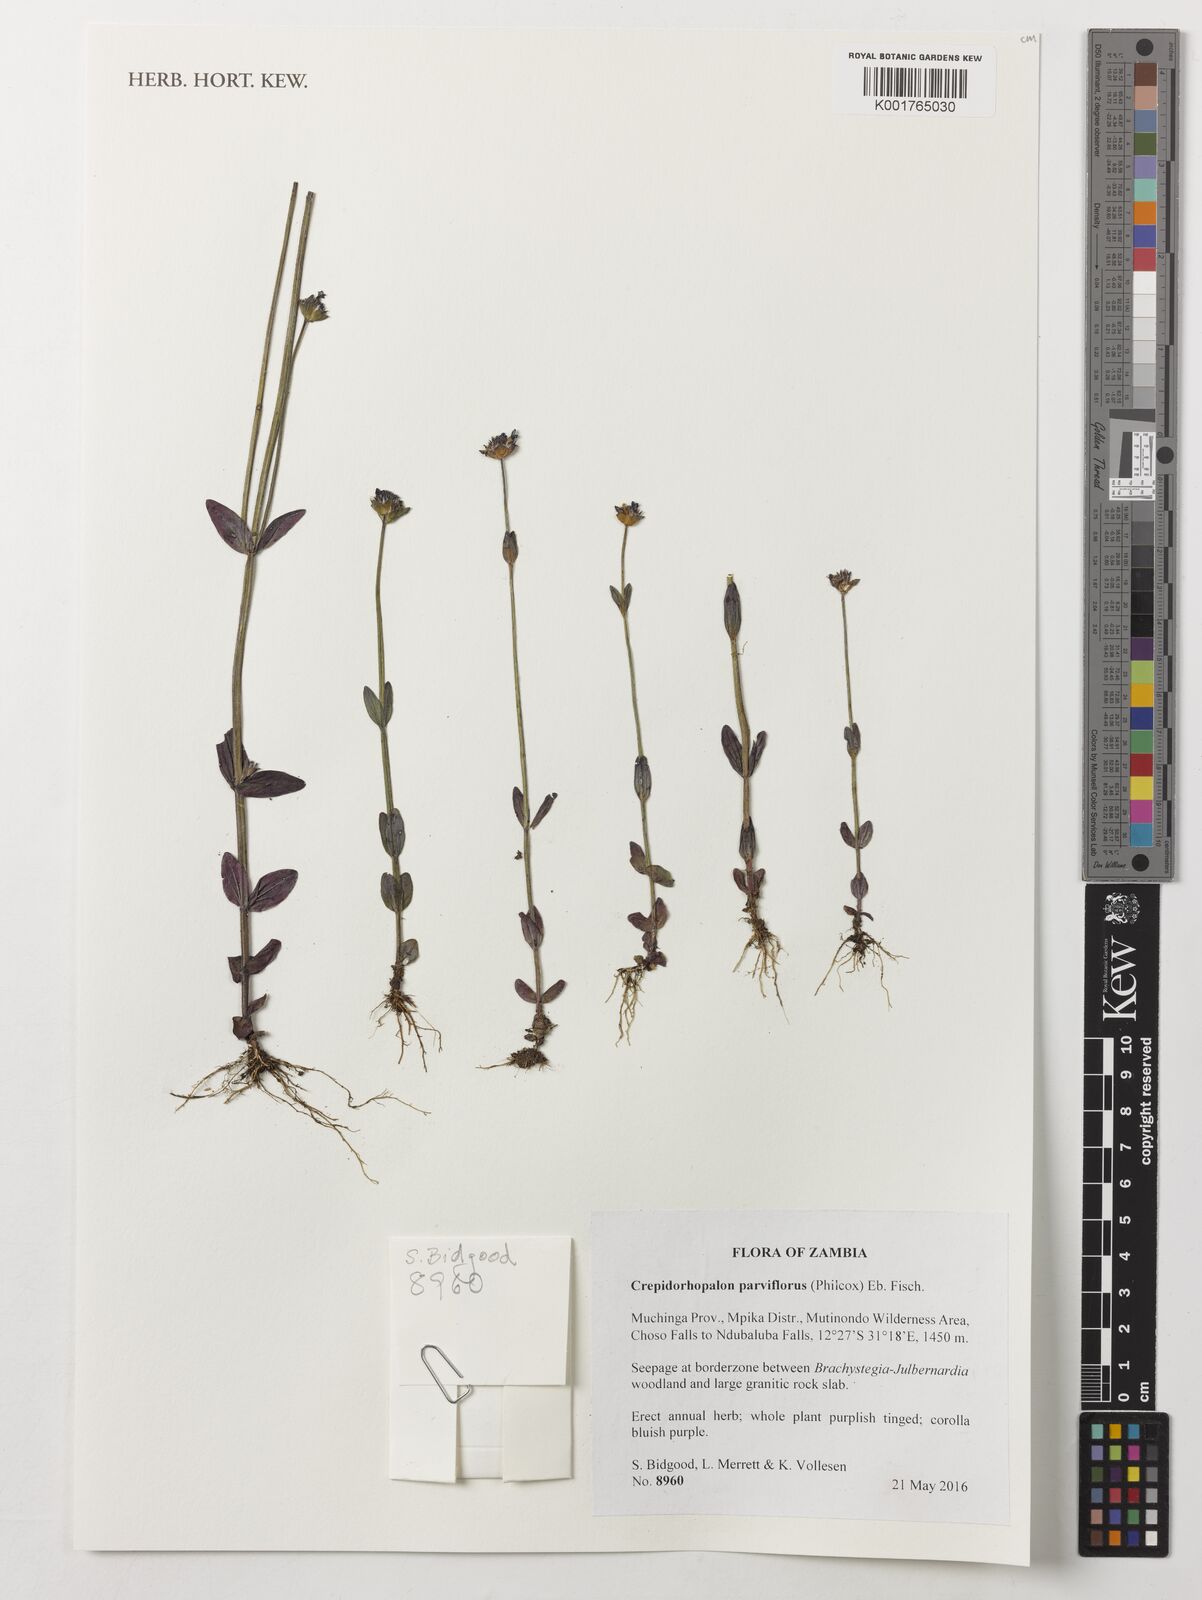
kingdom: Plantae
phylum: Tracheophyta
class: Magnoliopsida
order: Lamiales
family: Linderniaceae
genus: Crepidorhopalon
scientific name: Crepidorhopalon parviflorus
